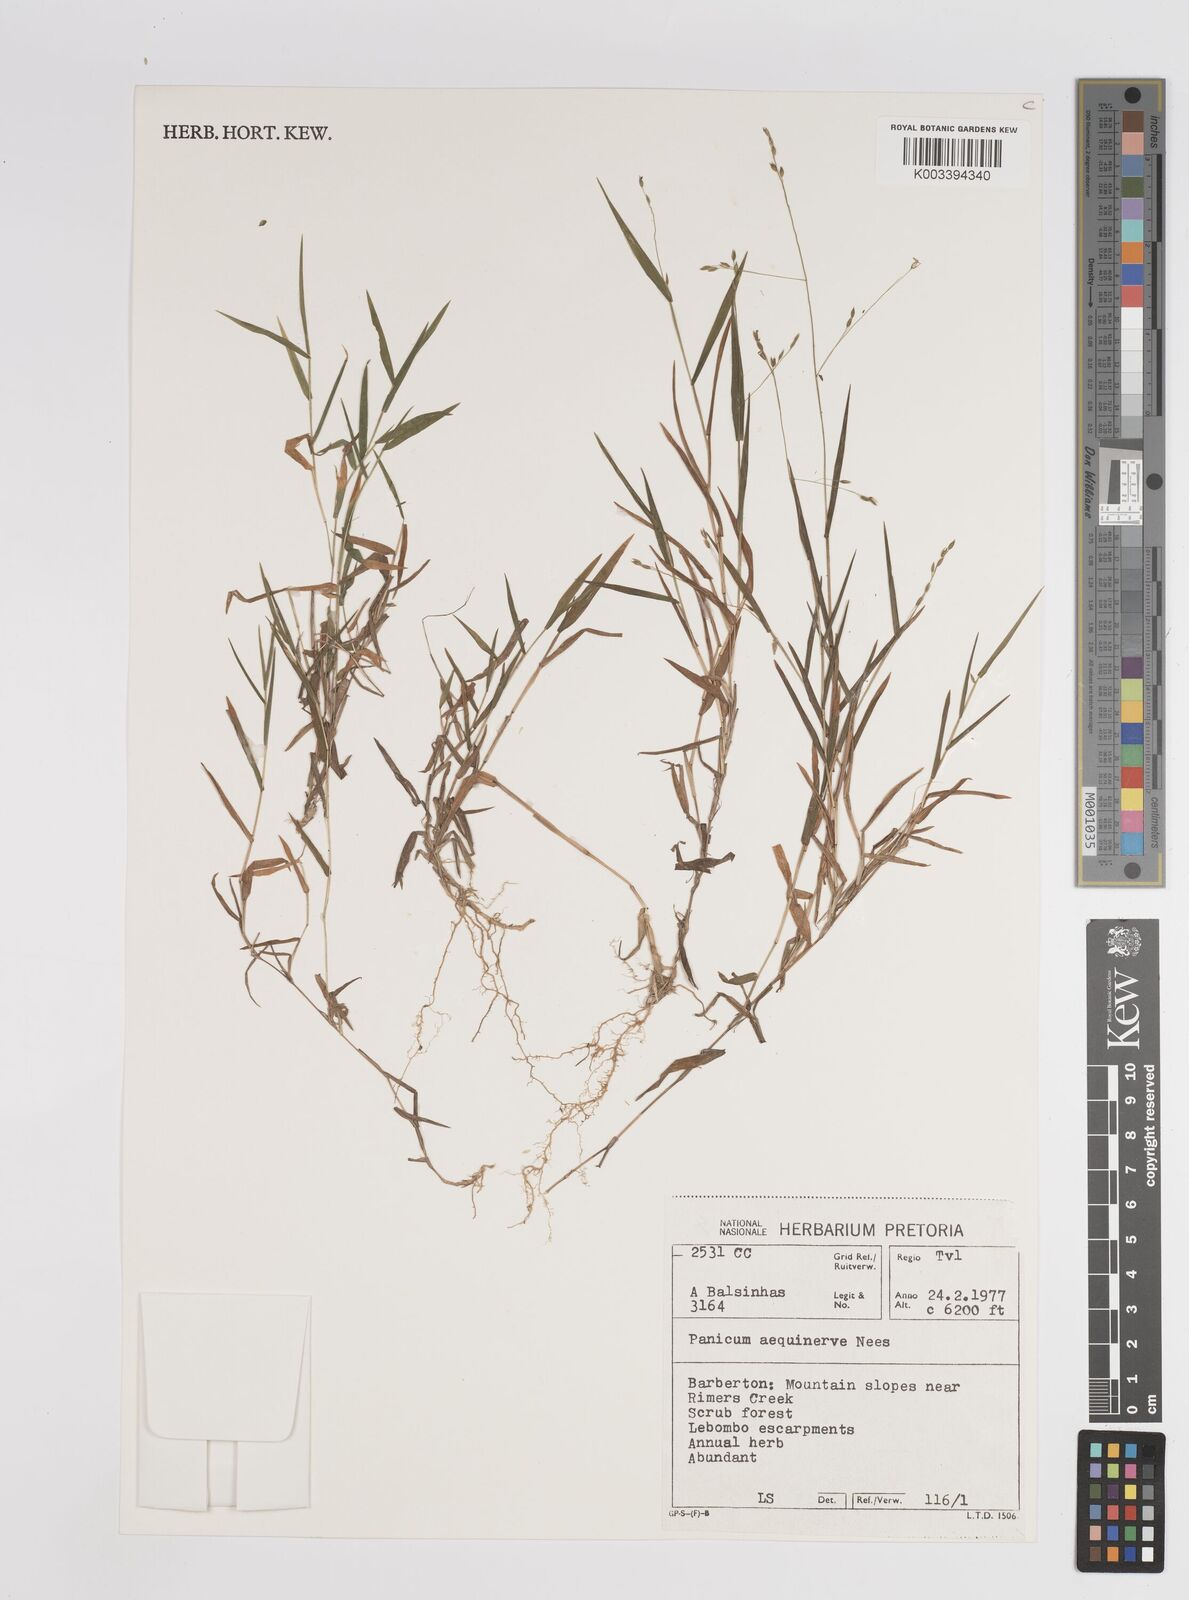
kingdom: Plantae
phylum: Tracheophyta
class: Liliopsida
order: Poales
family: Poaceae
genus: Panicum
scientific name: Panicum aequinerve
